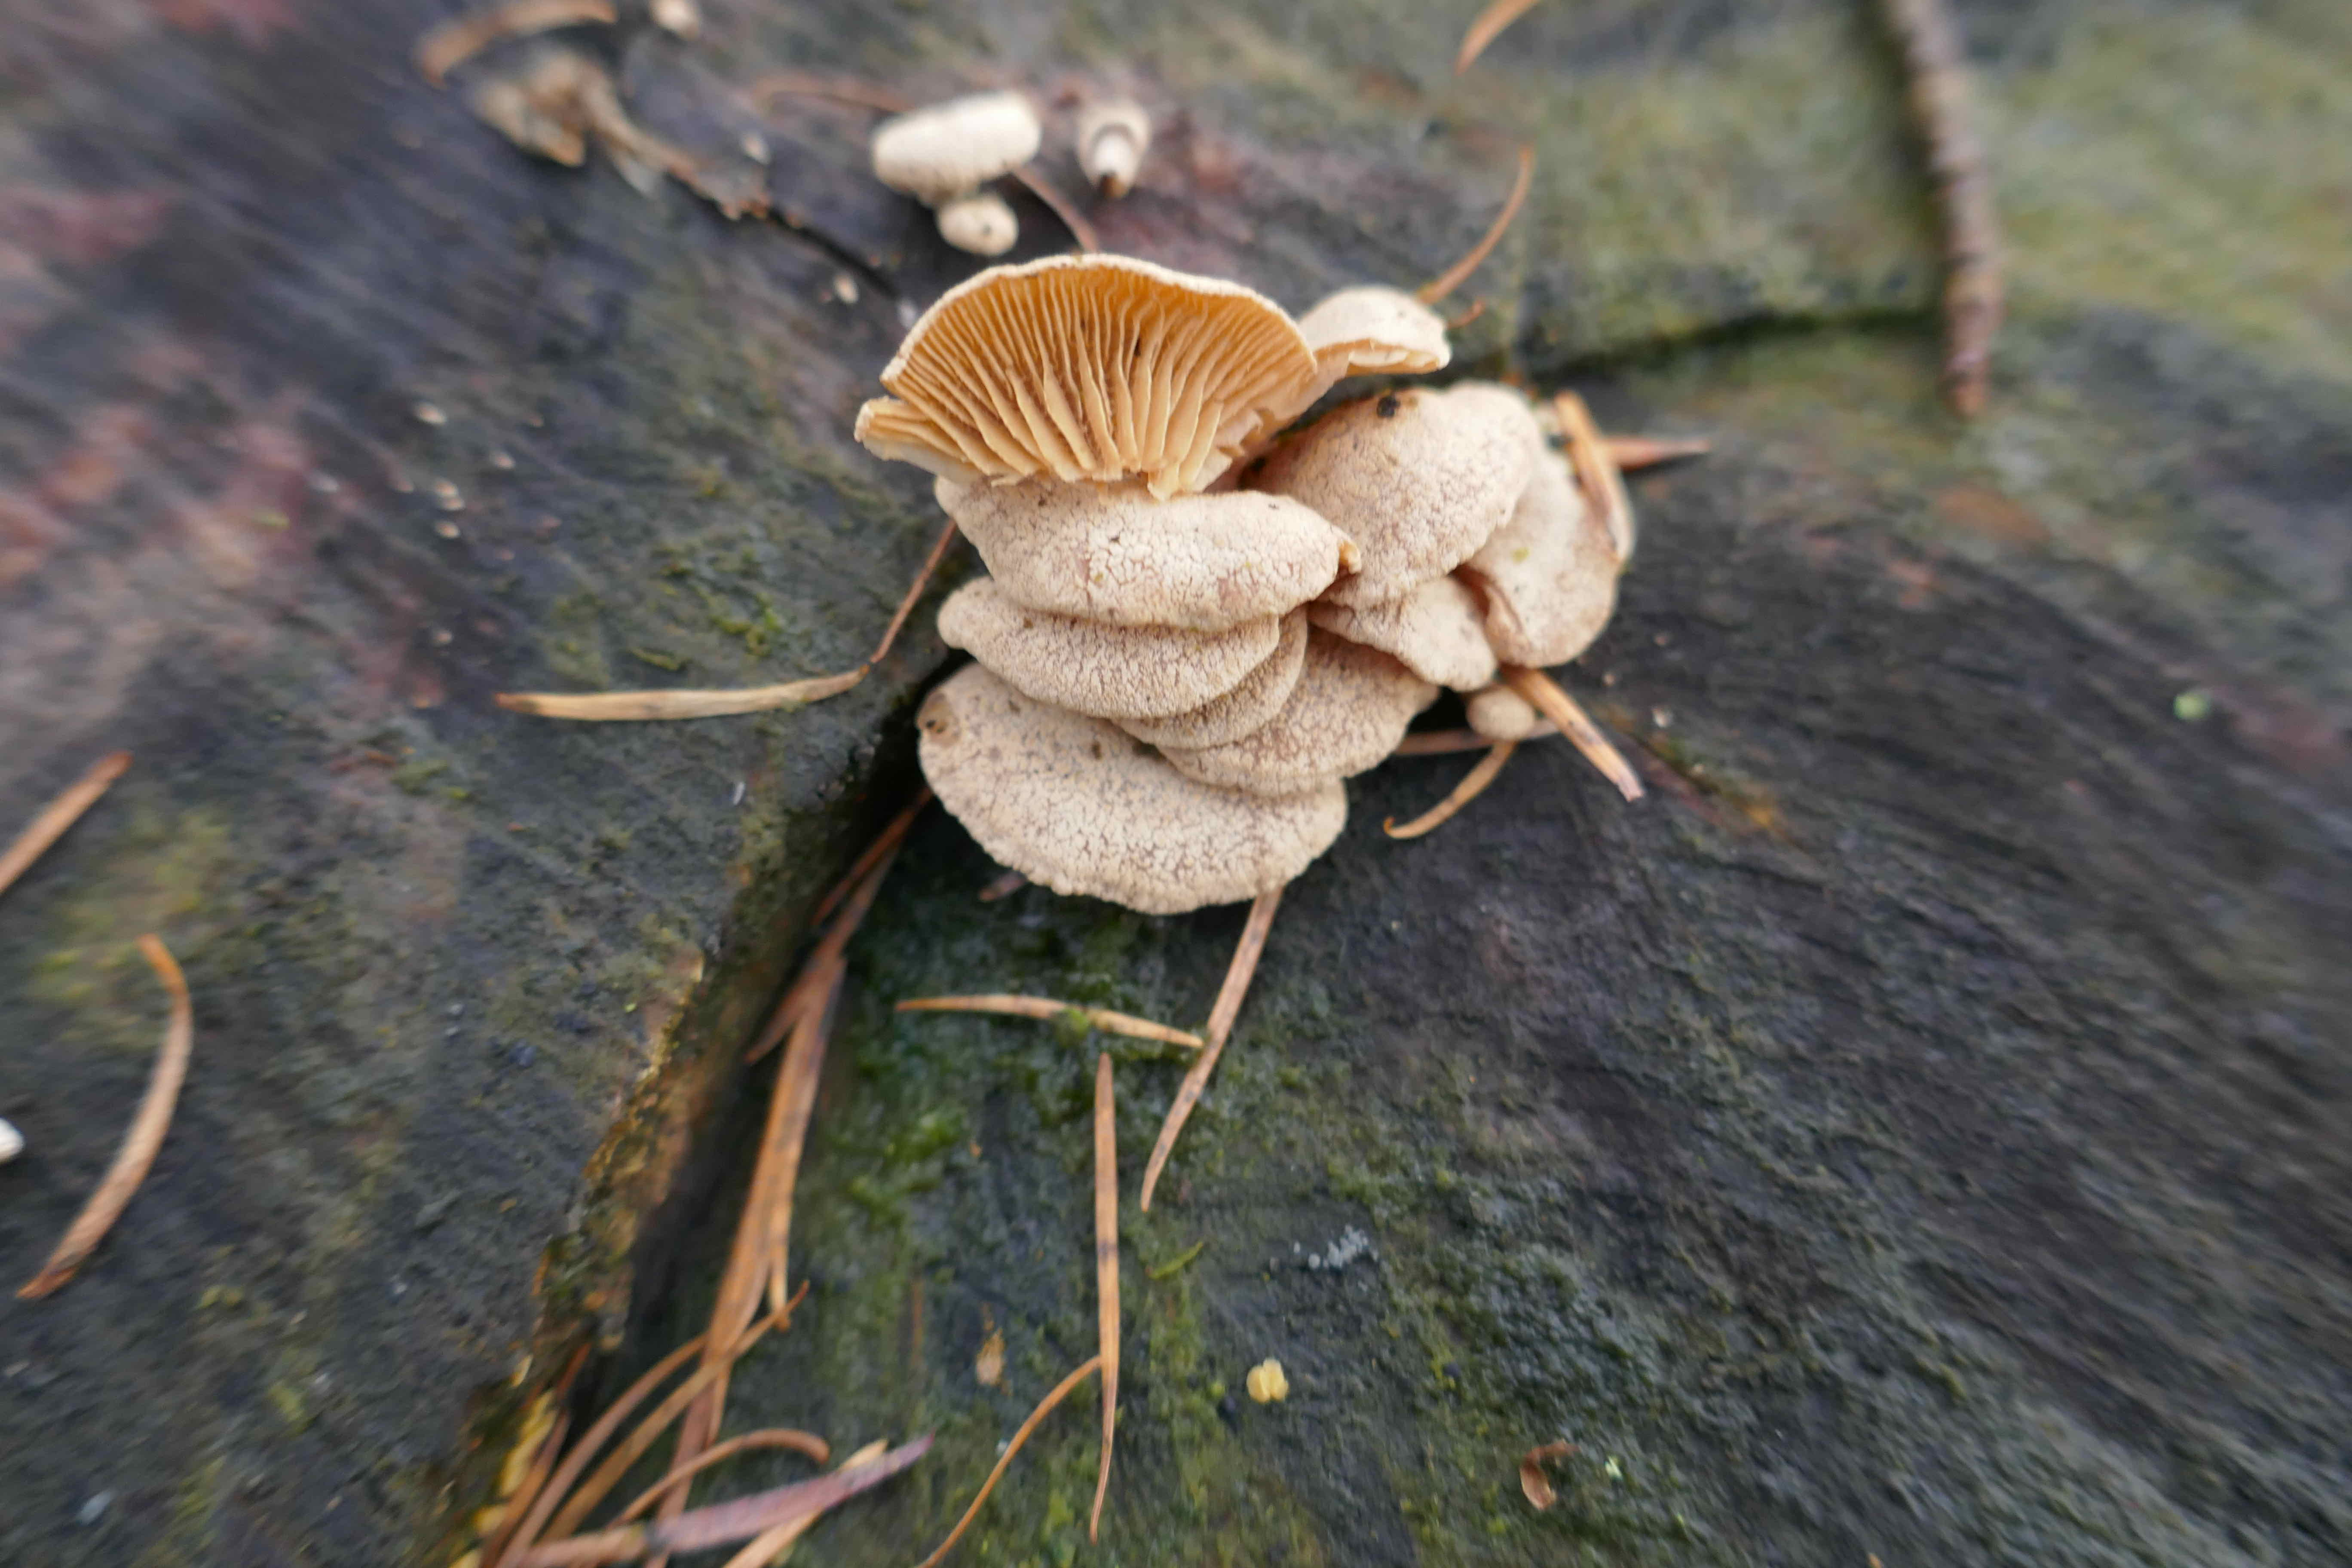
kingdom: Fungi
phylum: Basidiomycota
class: Agaricomycetes
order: Agaricales
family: Mycenaceae
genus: Panellus
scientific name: Panellus stipticus
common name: kliddet epaulethat
